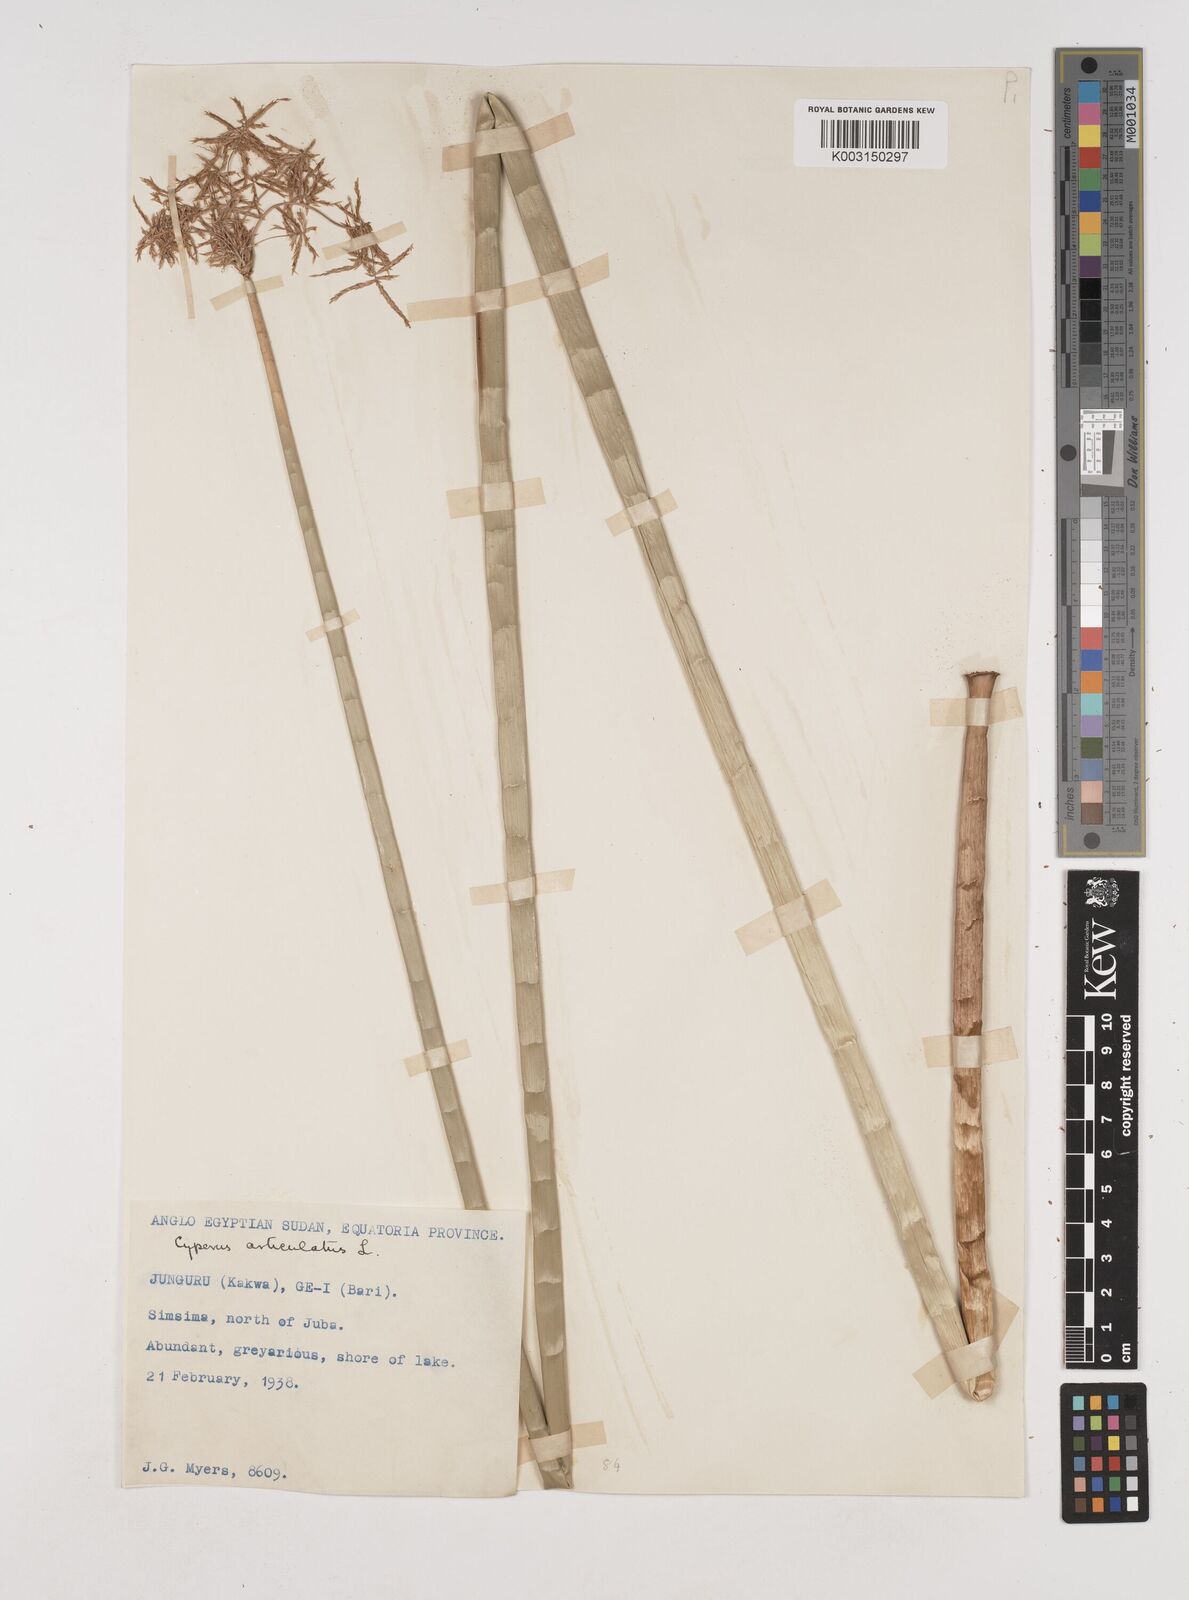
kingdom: Plantae
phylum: Tracheophyta
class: Liliopsida
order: Poales
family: Cyperaceae
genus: Cyperus
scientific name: Cyperus articulatus
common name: Jointed flatsedge
